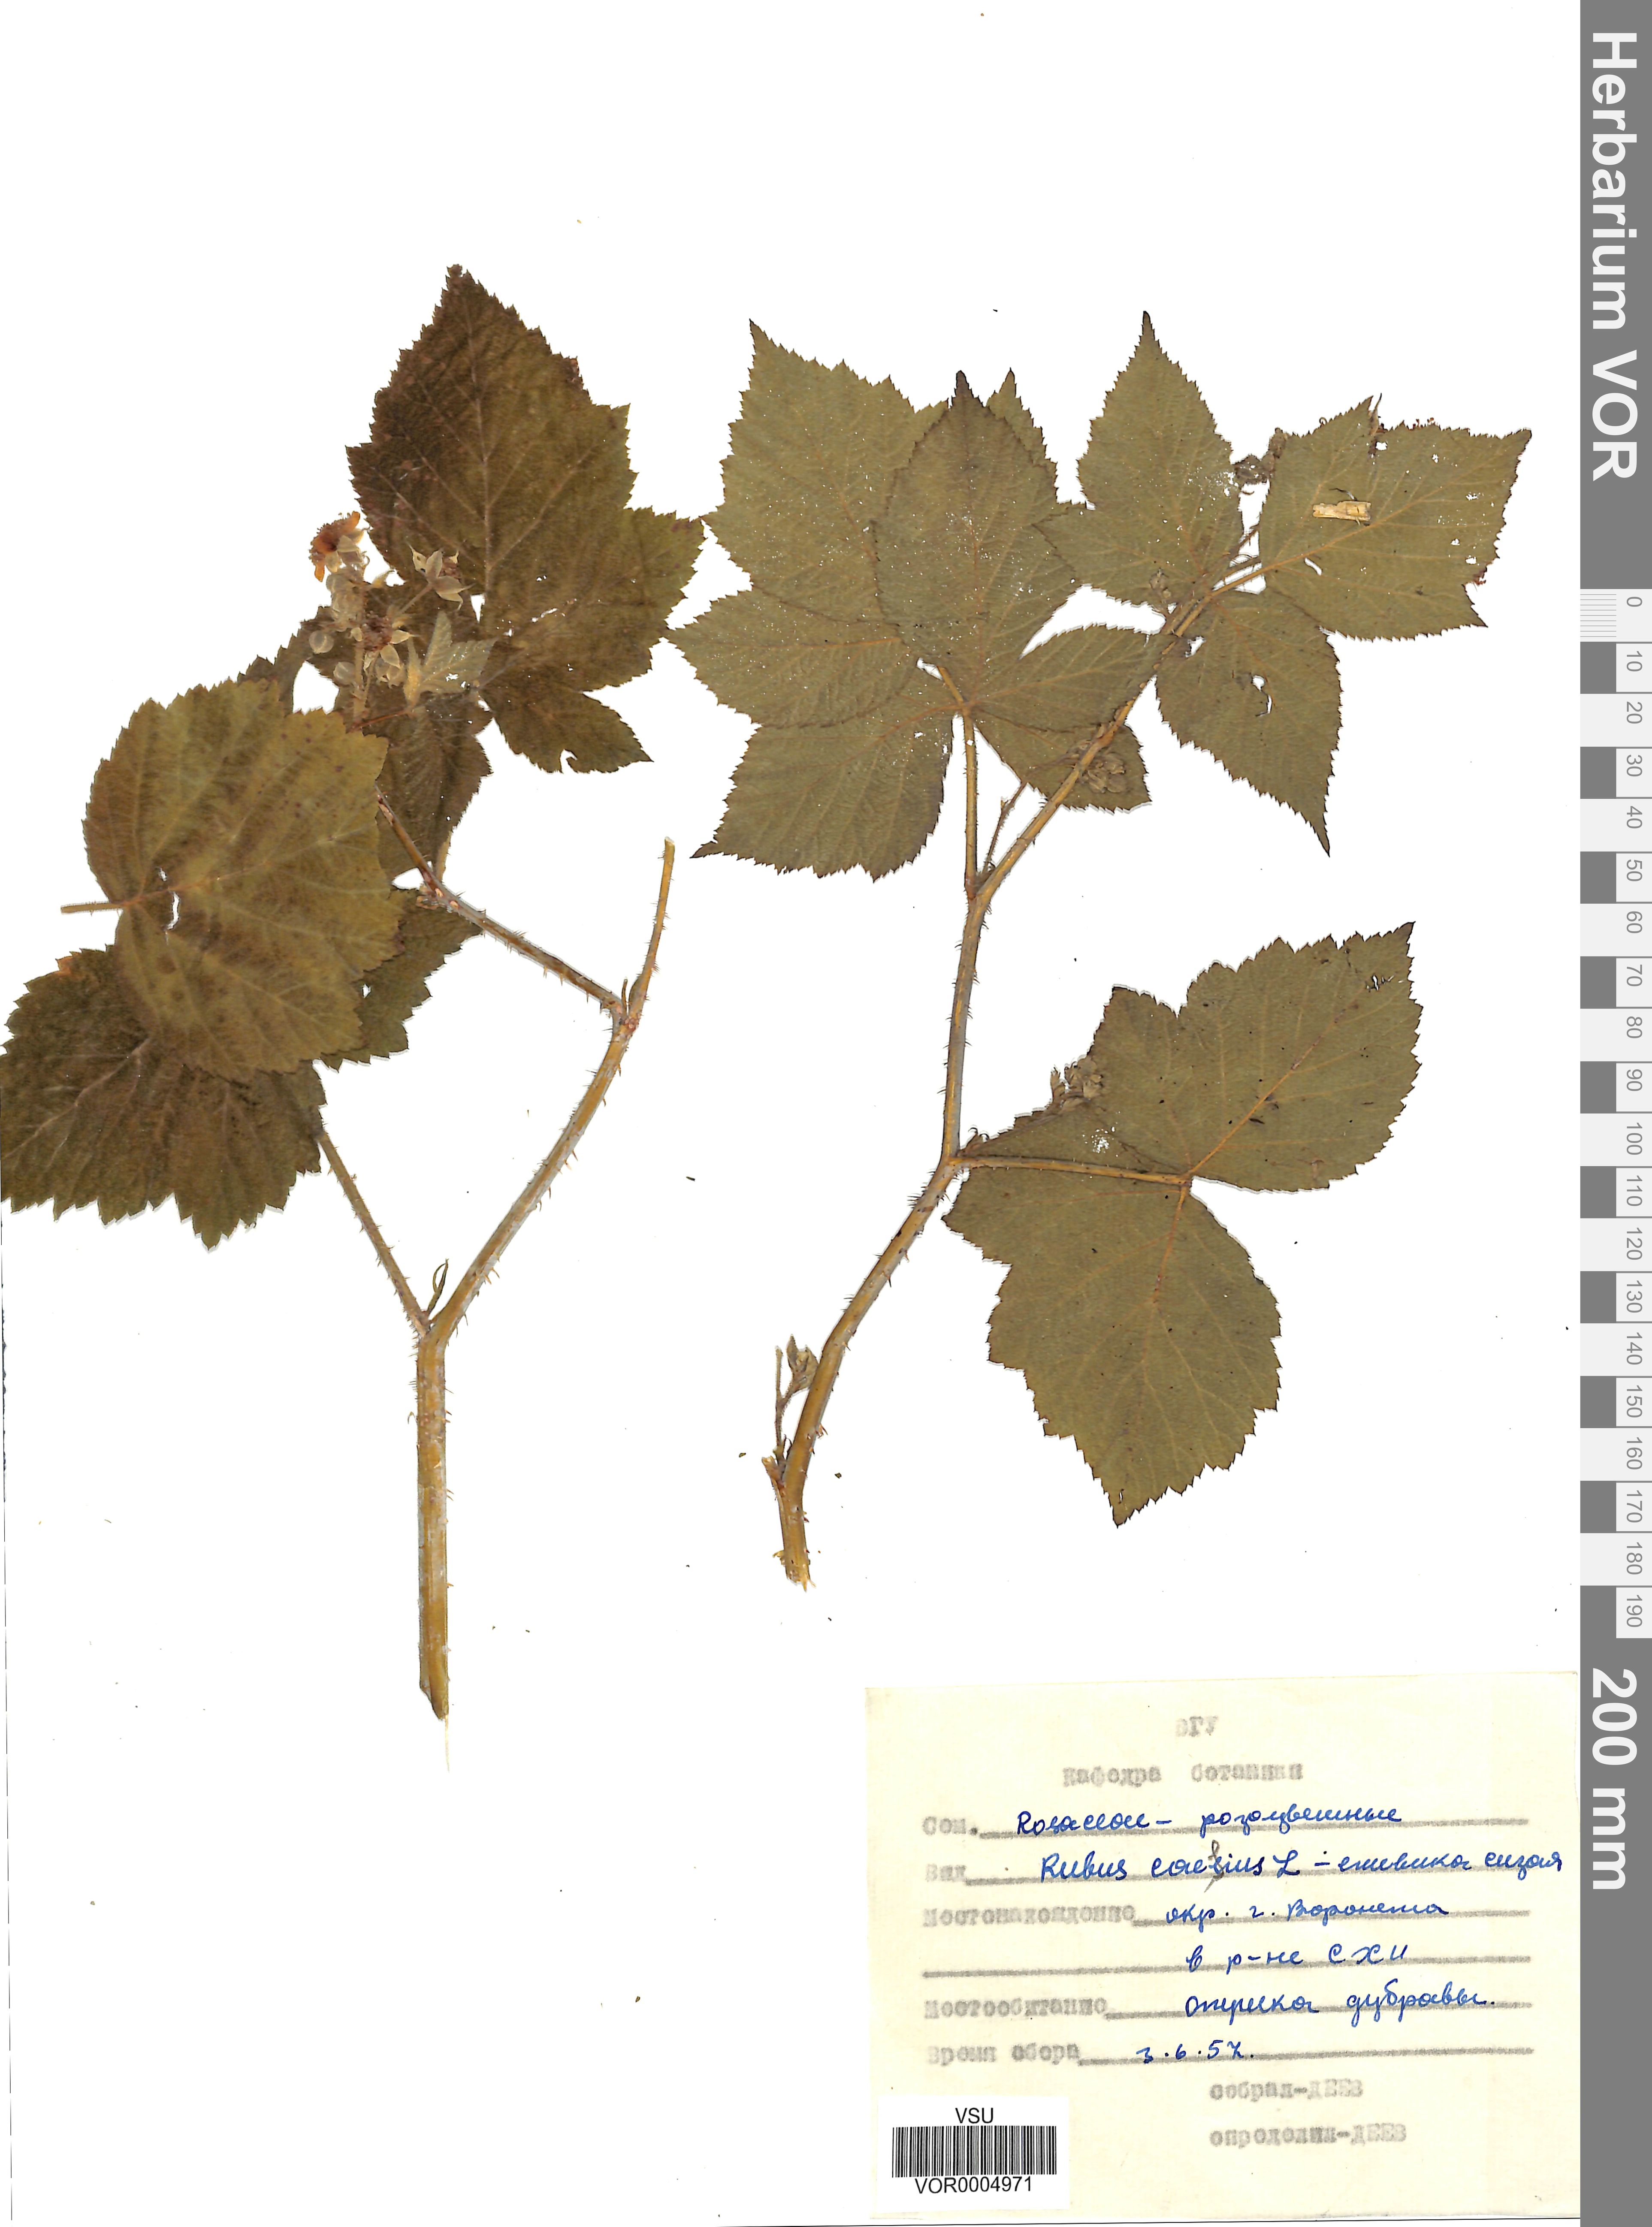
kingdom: Plantae
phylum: Tracheophyta
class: Magnoliopsida
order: Rosales
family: Rosaceae
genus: Rubus
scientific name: Rubus caesius
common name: Dewberry
